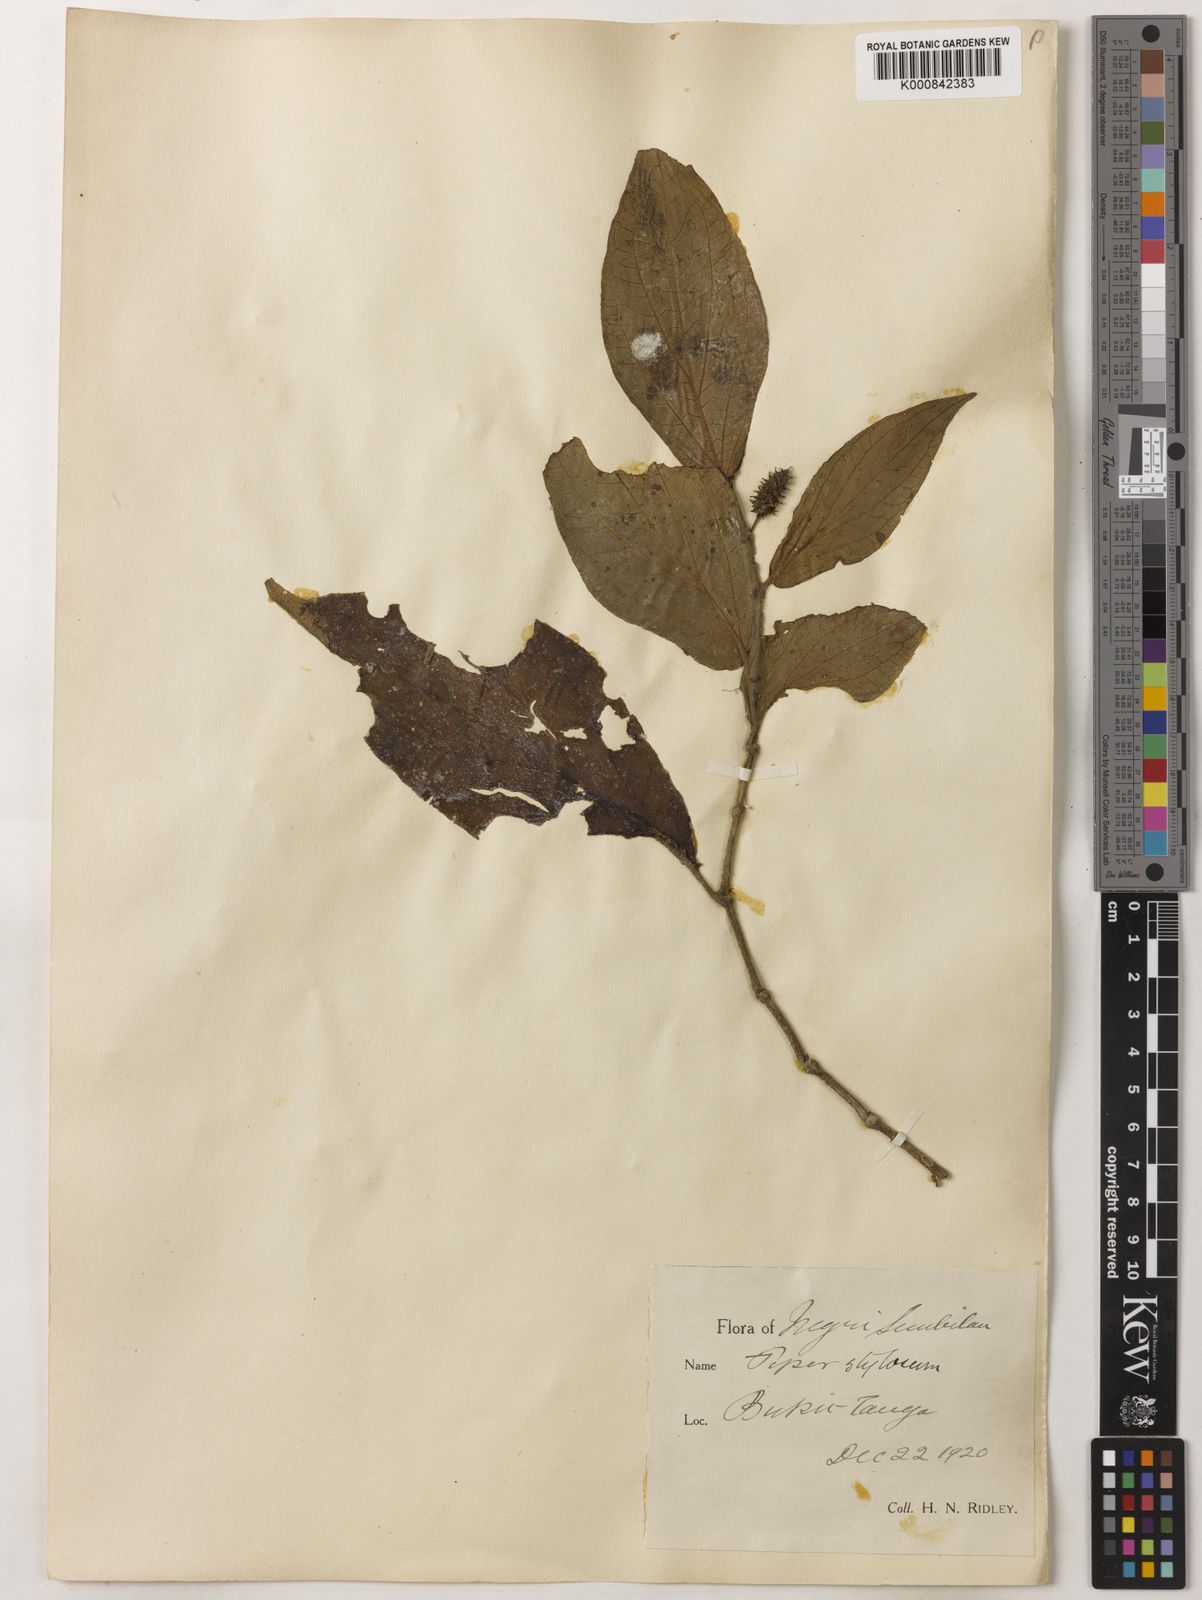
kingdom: Plantae
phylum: Tracheophyta
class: Magnoliopsida
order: Piperales
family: Piperaceae
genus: Piper
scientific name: Piper rostratum
